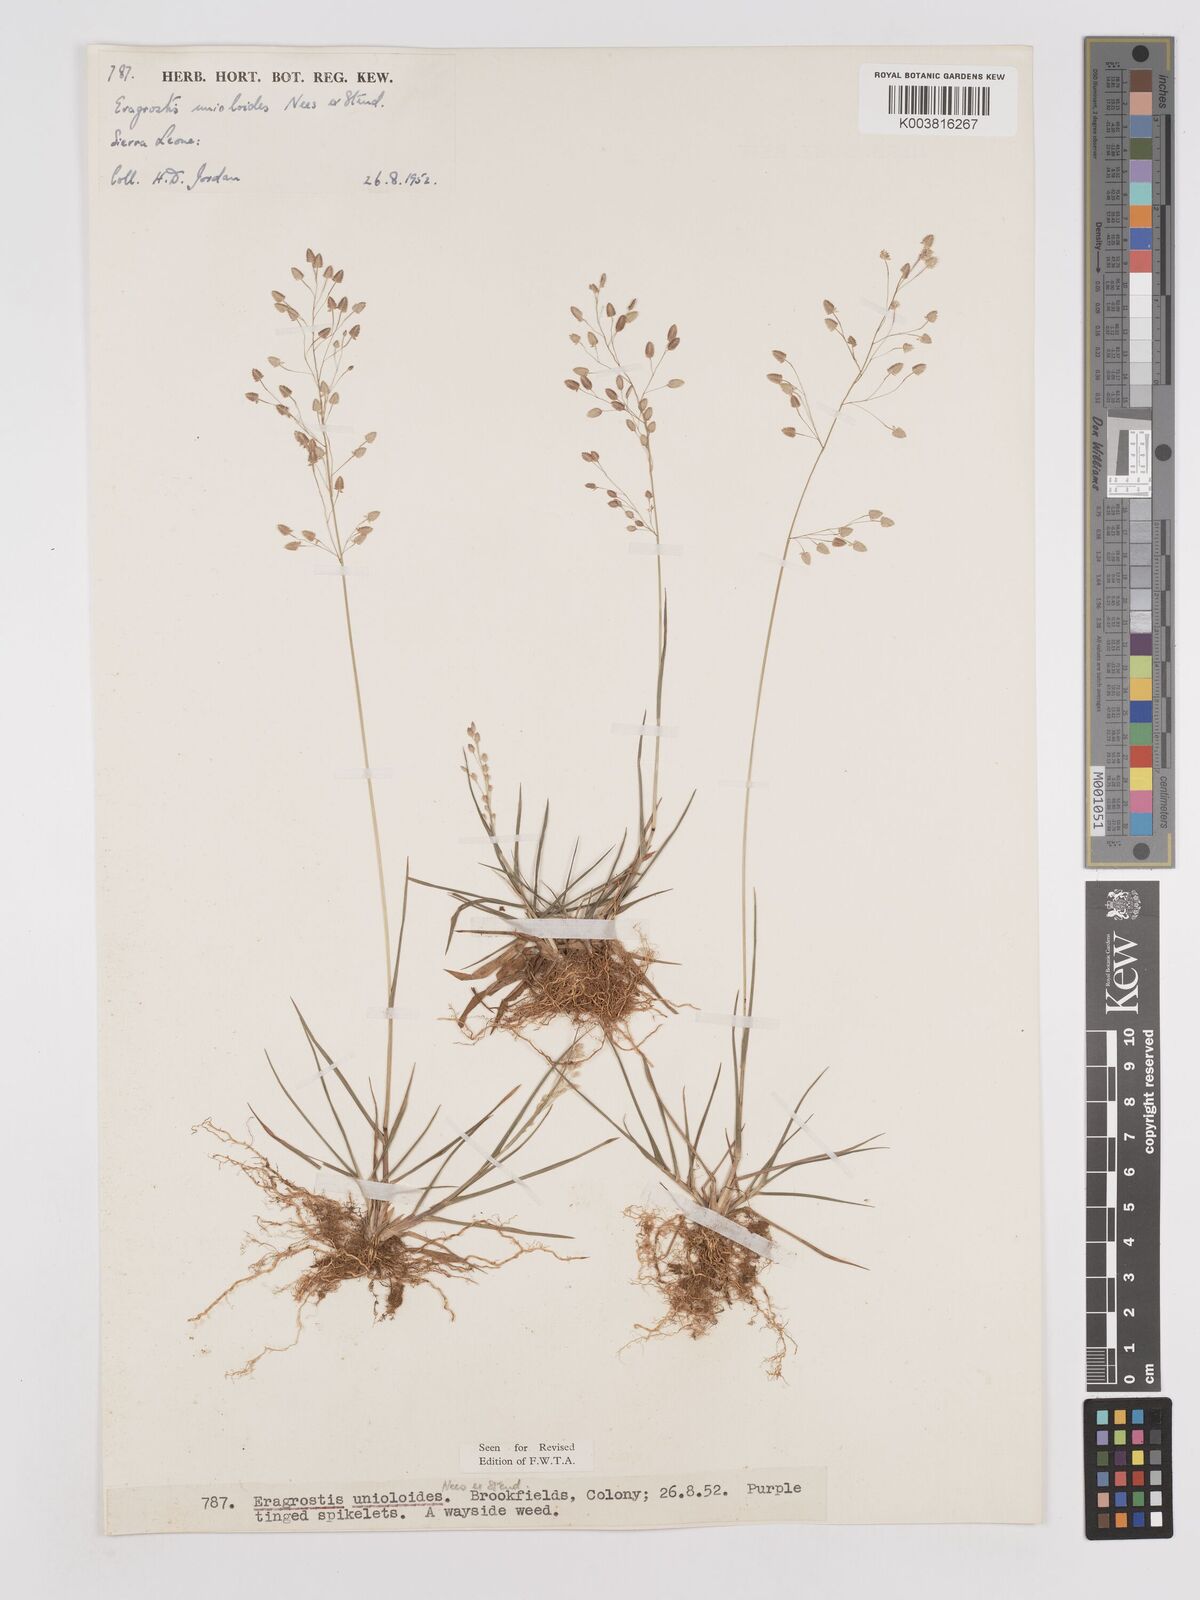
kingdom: Plantae
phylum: Tracheophyta
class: Liliopsida
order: Poales
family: Poaceae
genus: Eragrostis
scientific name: Eragrostis unioloides
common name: Chinese lovegrass
